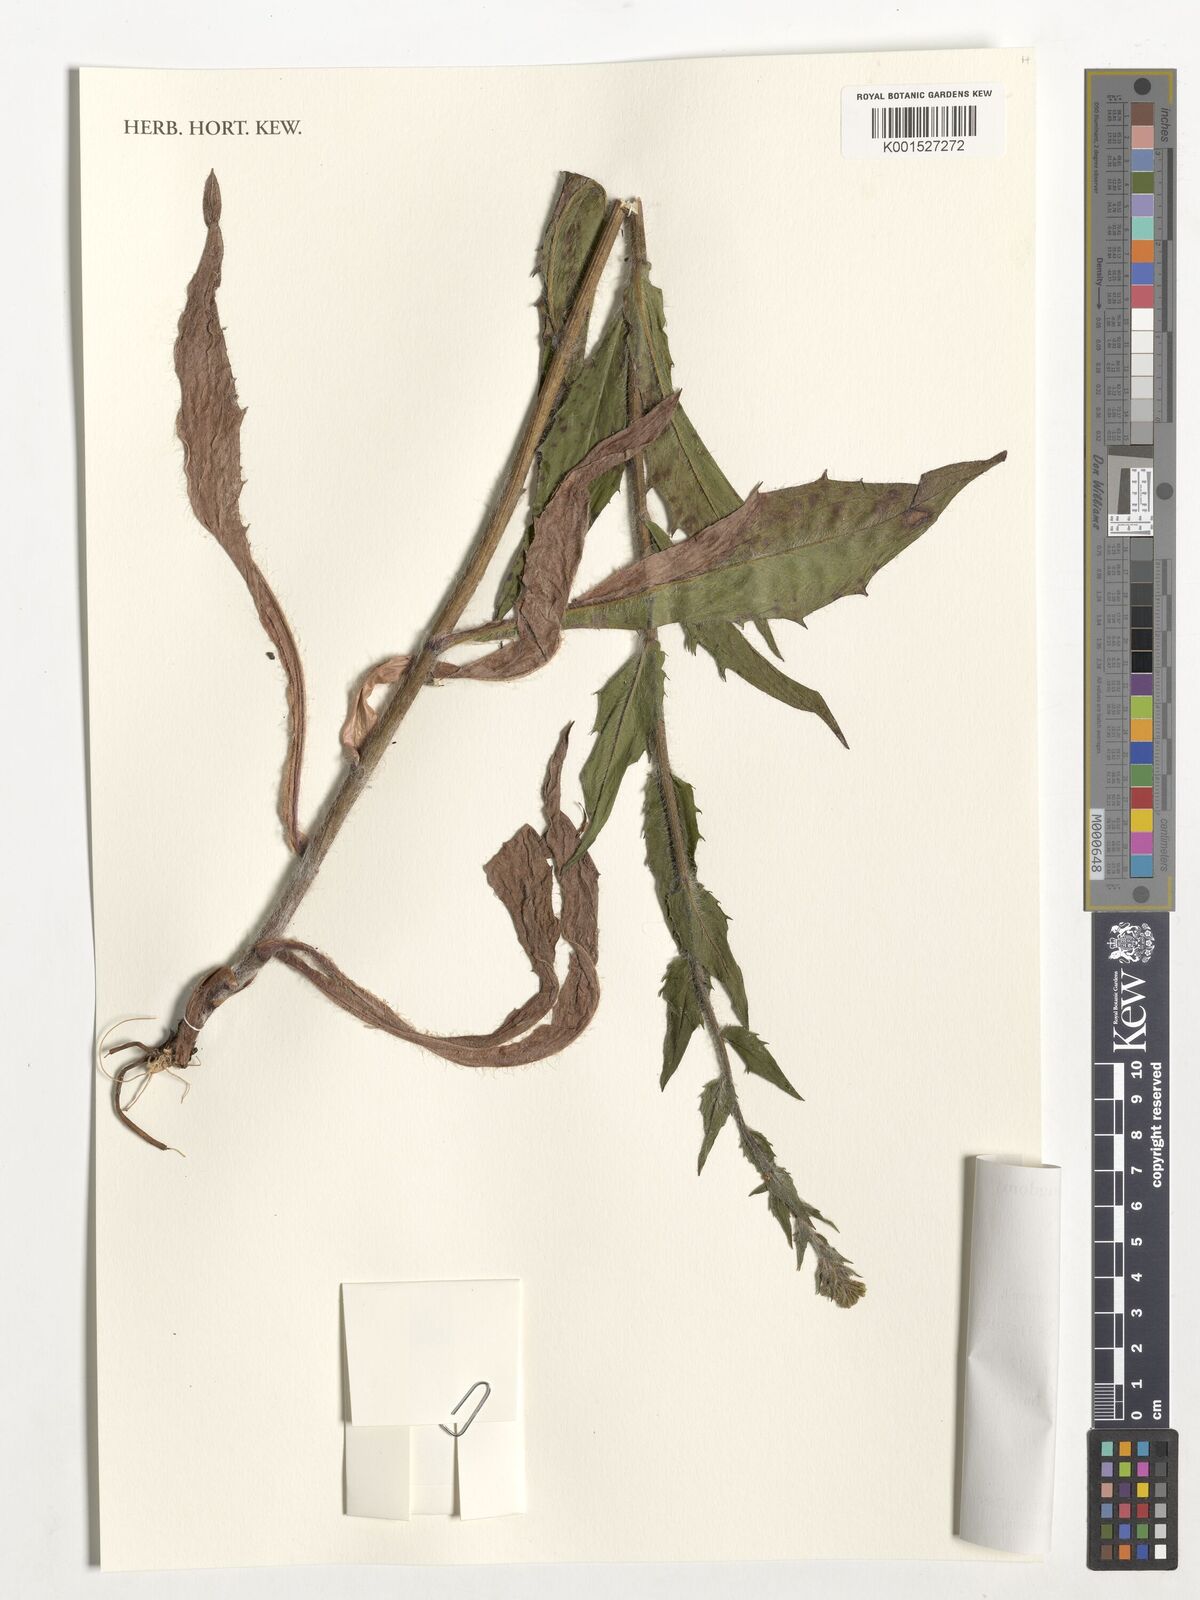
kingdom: Plantae
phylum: Tracheophyta
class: Magnoliopsida
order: Asterales
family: Asteraceae
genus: Hieracium
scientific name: Hieracium sabaudum
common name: New england hawkweed
